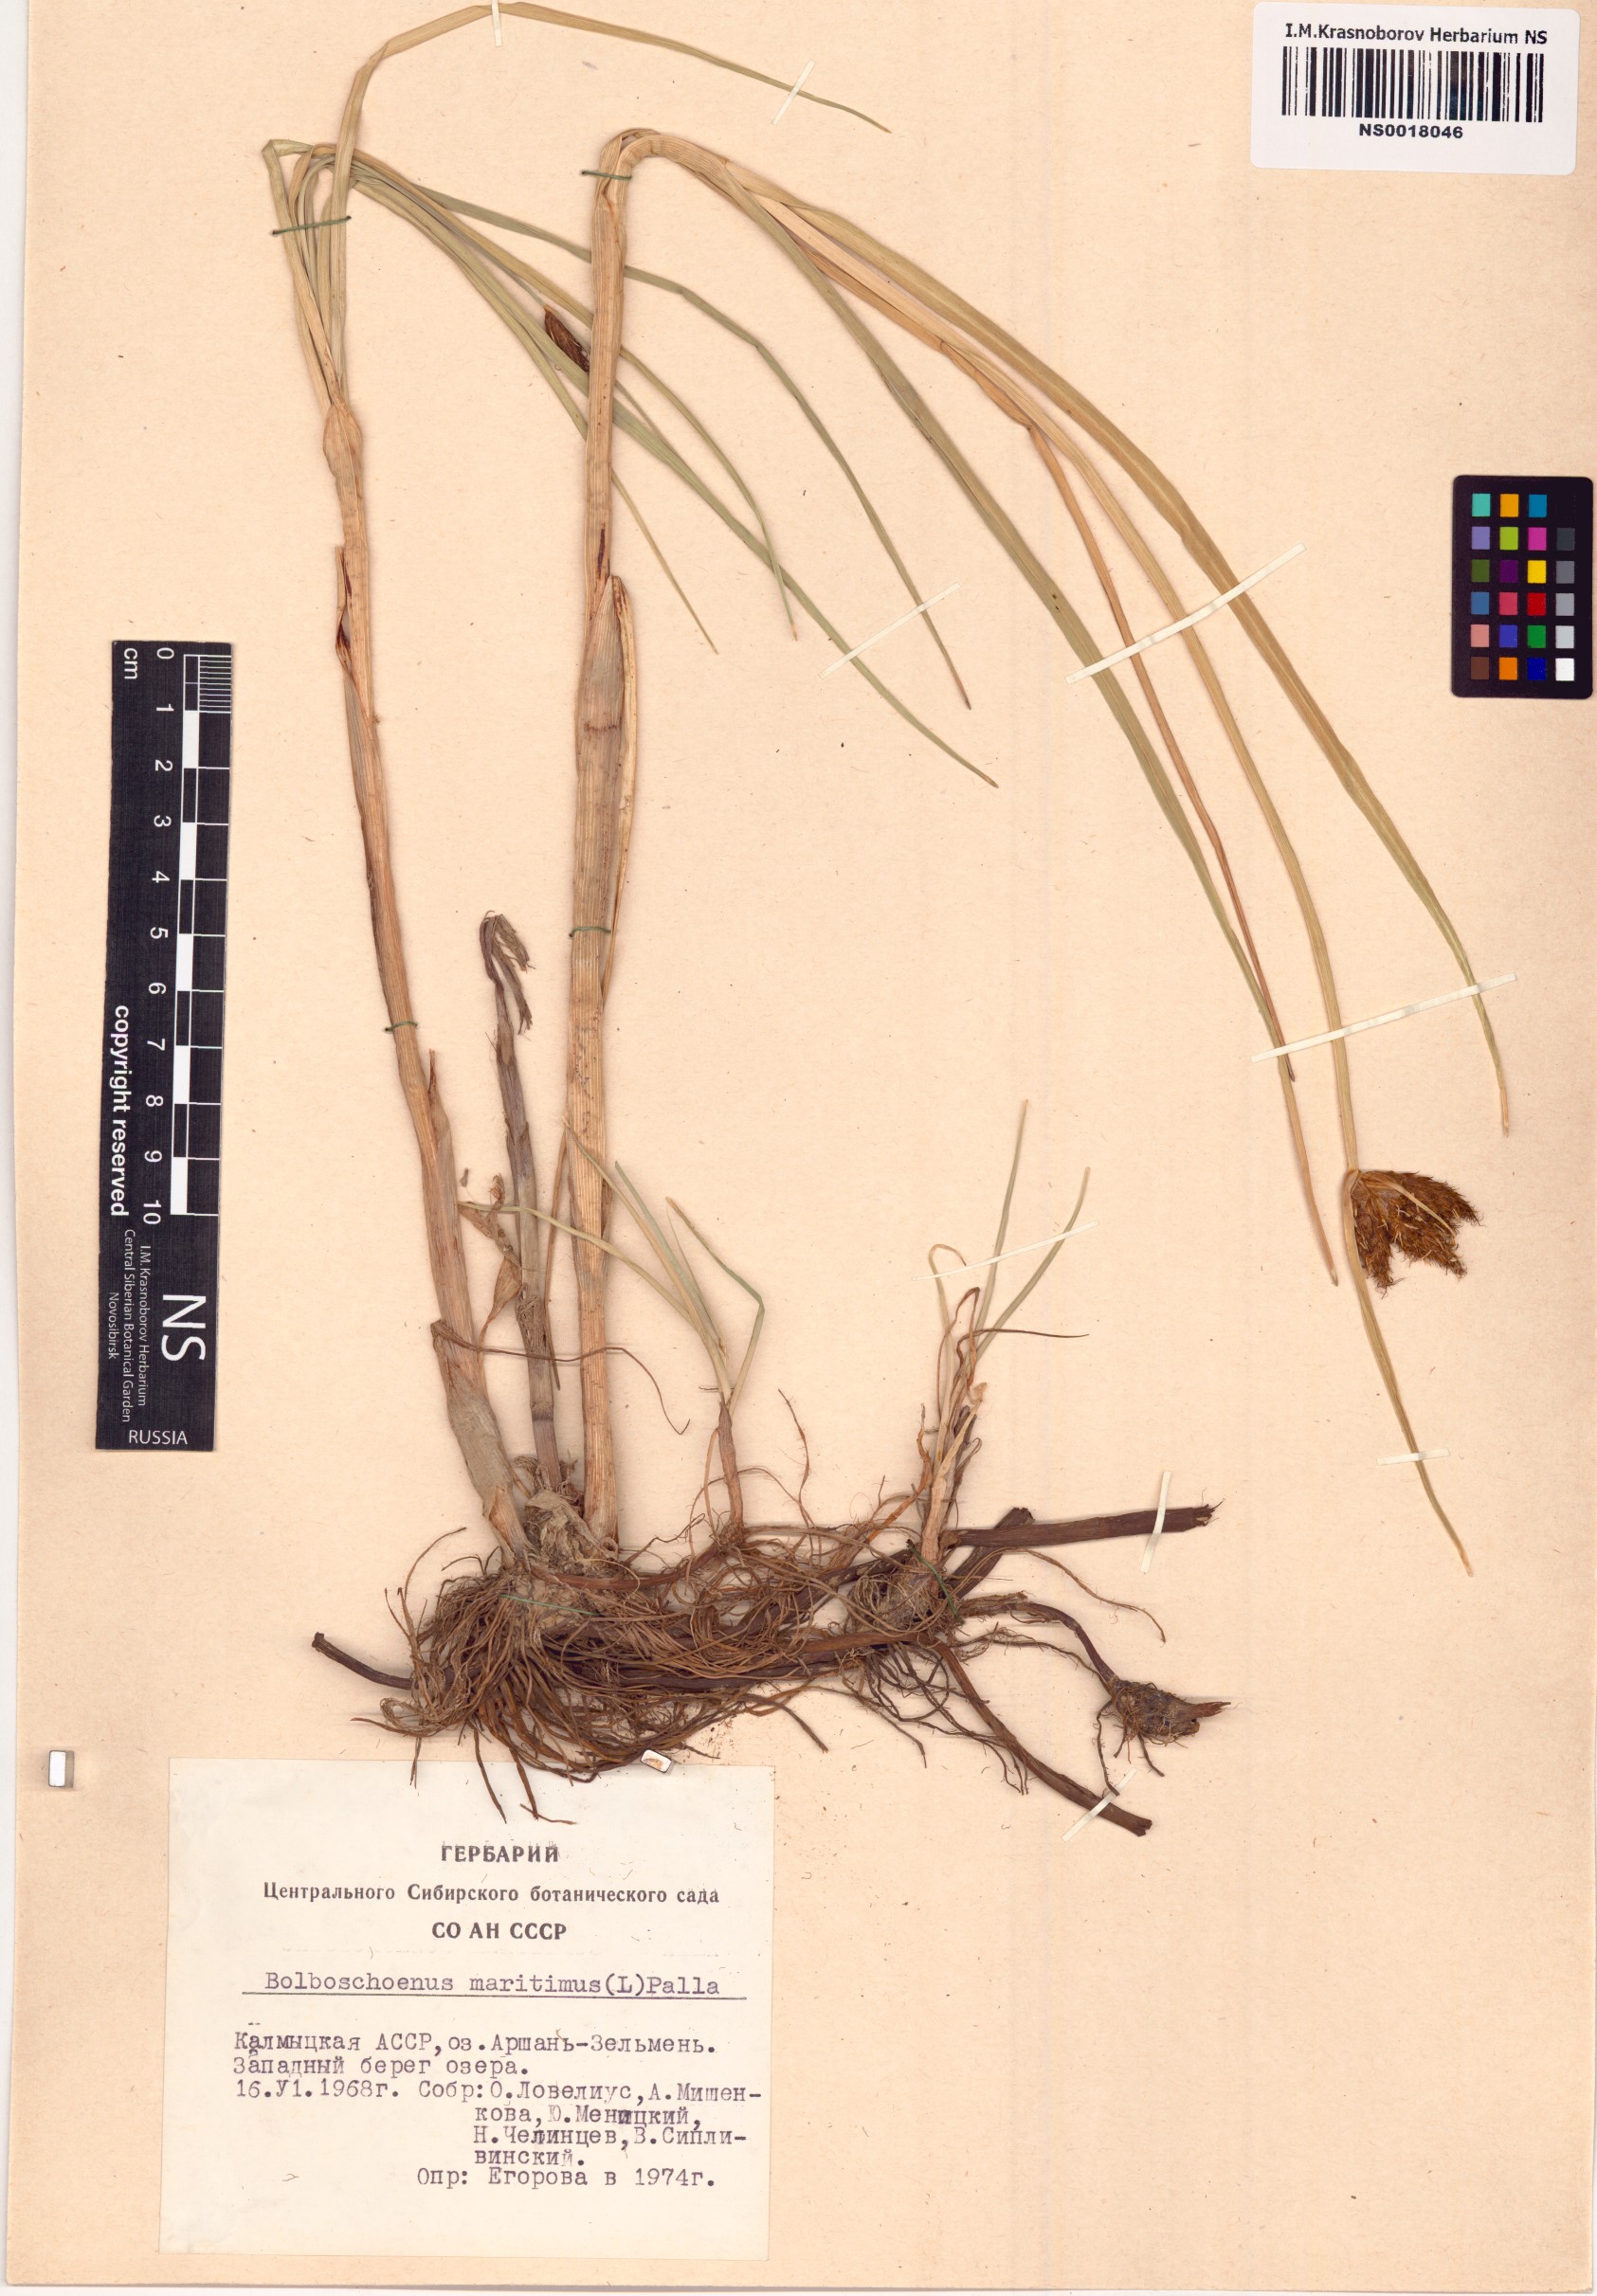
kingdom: Plantae
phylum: Tracheophyta
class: Liliopsida
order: Poales
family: Cyperaceae
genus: Bolboschoenus
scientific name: Bolboschoenus maritimus
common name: Sea club-rush
